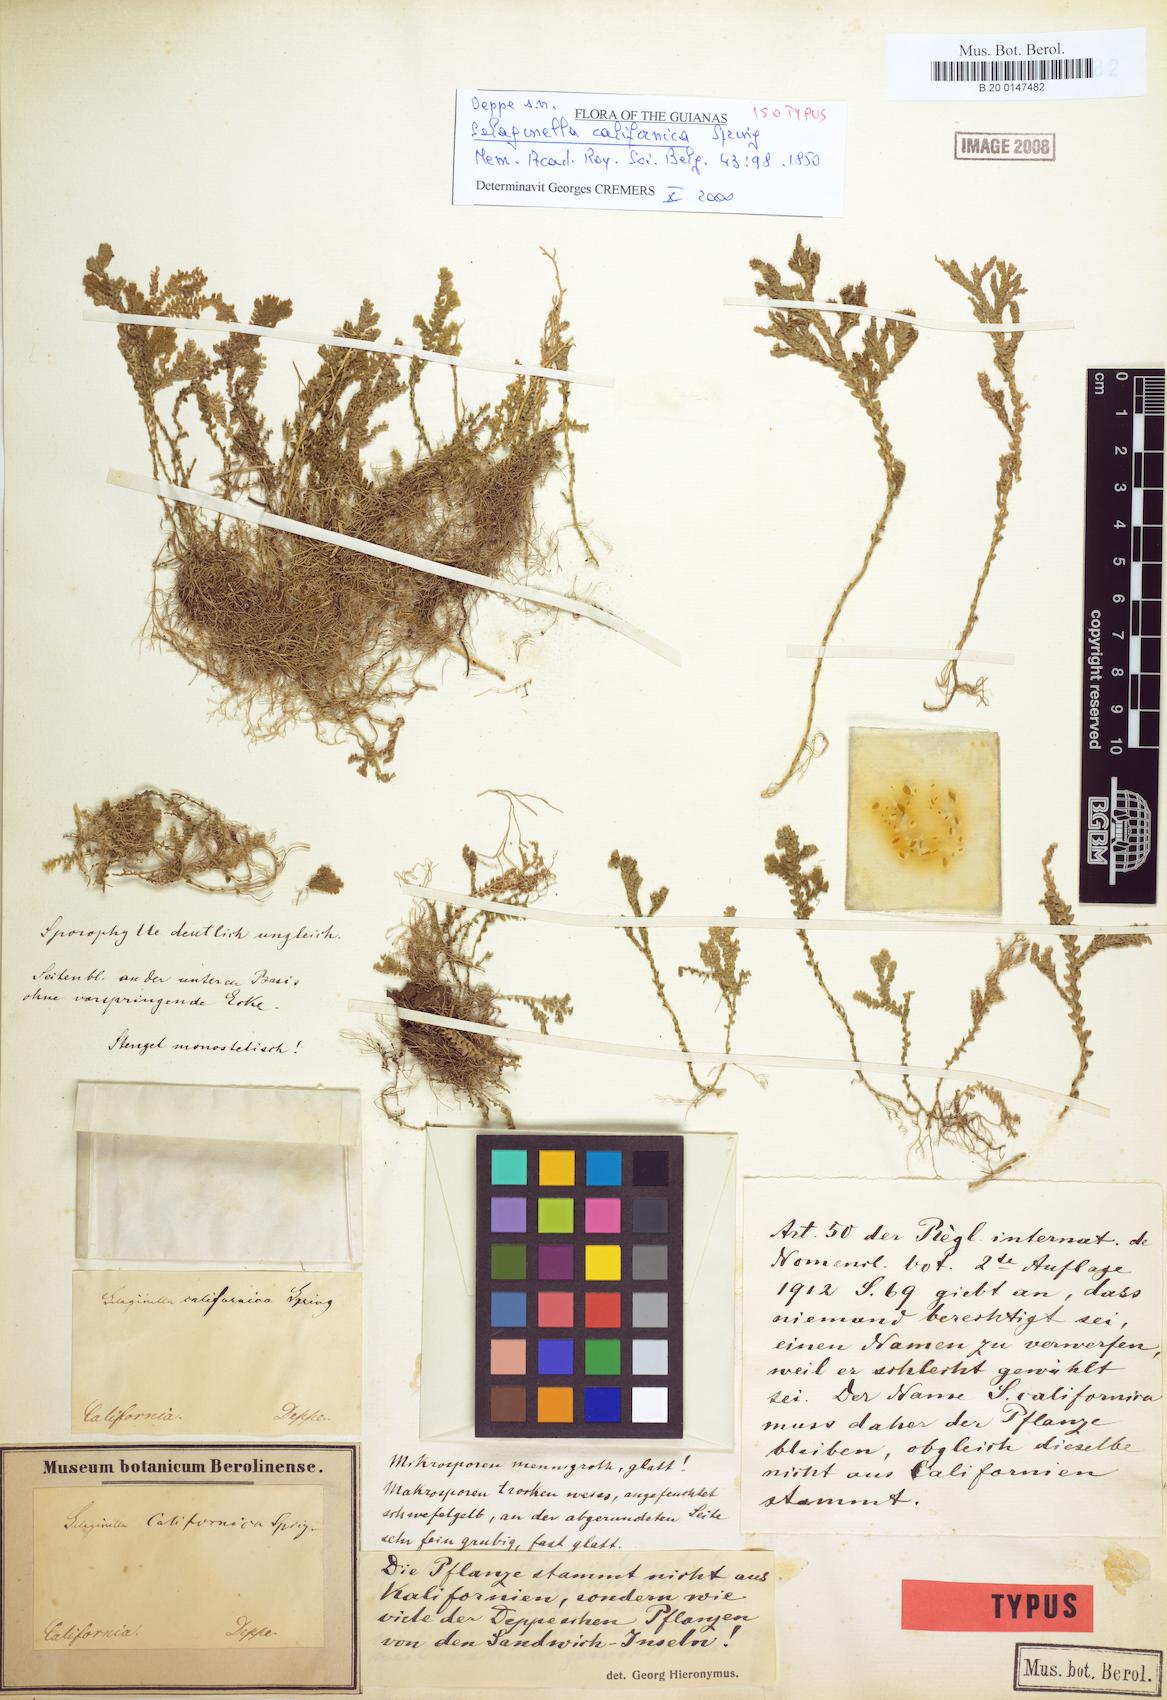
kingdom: Plantae
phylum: Tracheophyta
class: Lycopodiopsida
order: Selaginellales
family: Selaginellaceae
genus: Selaginella
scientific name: Selaginella Lycopodioides californica
